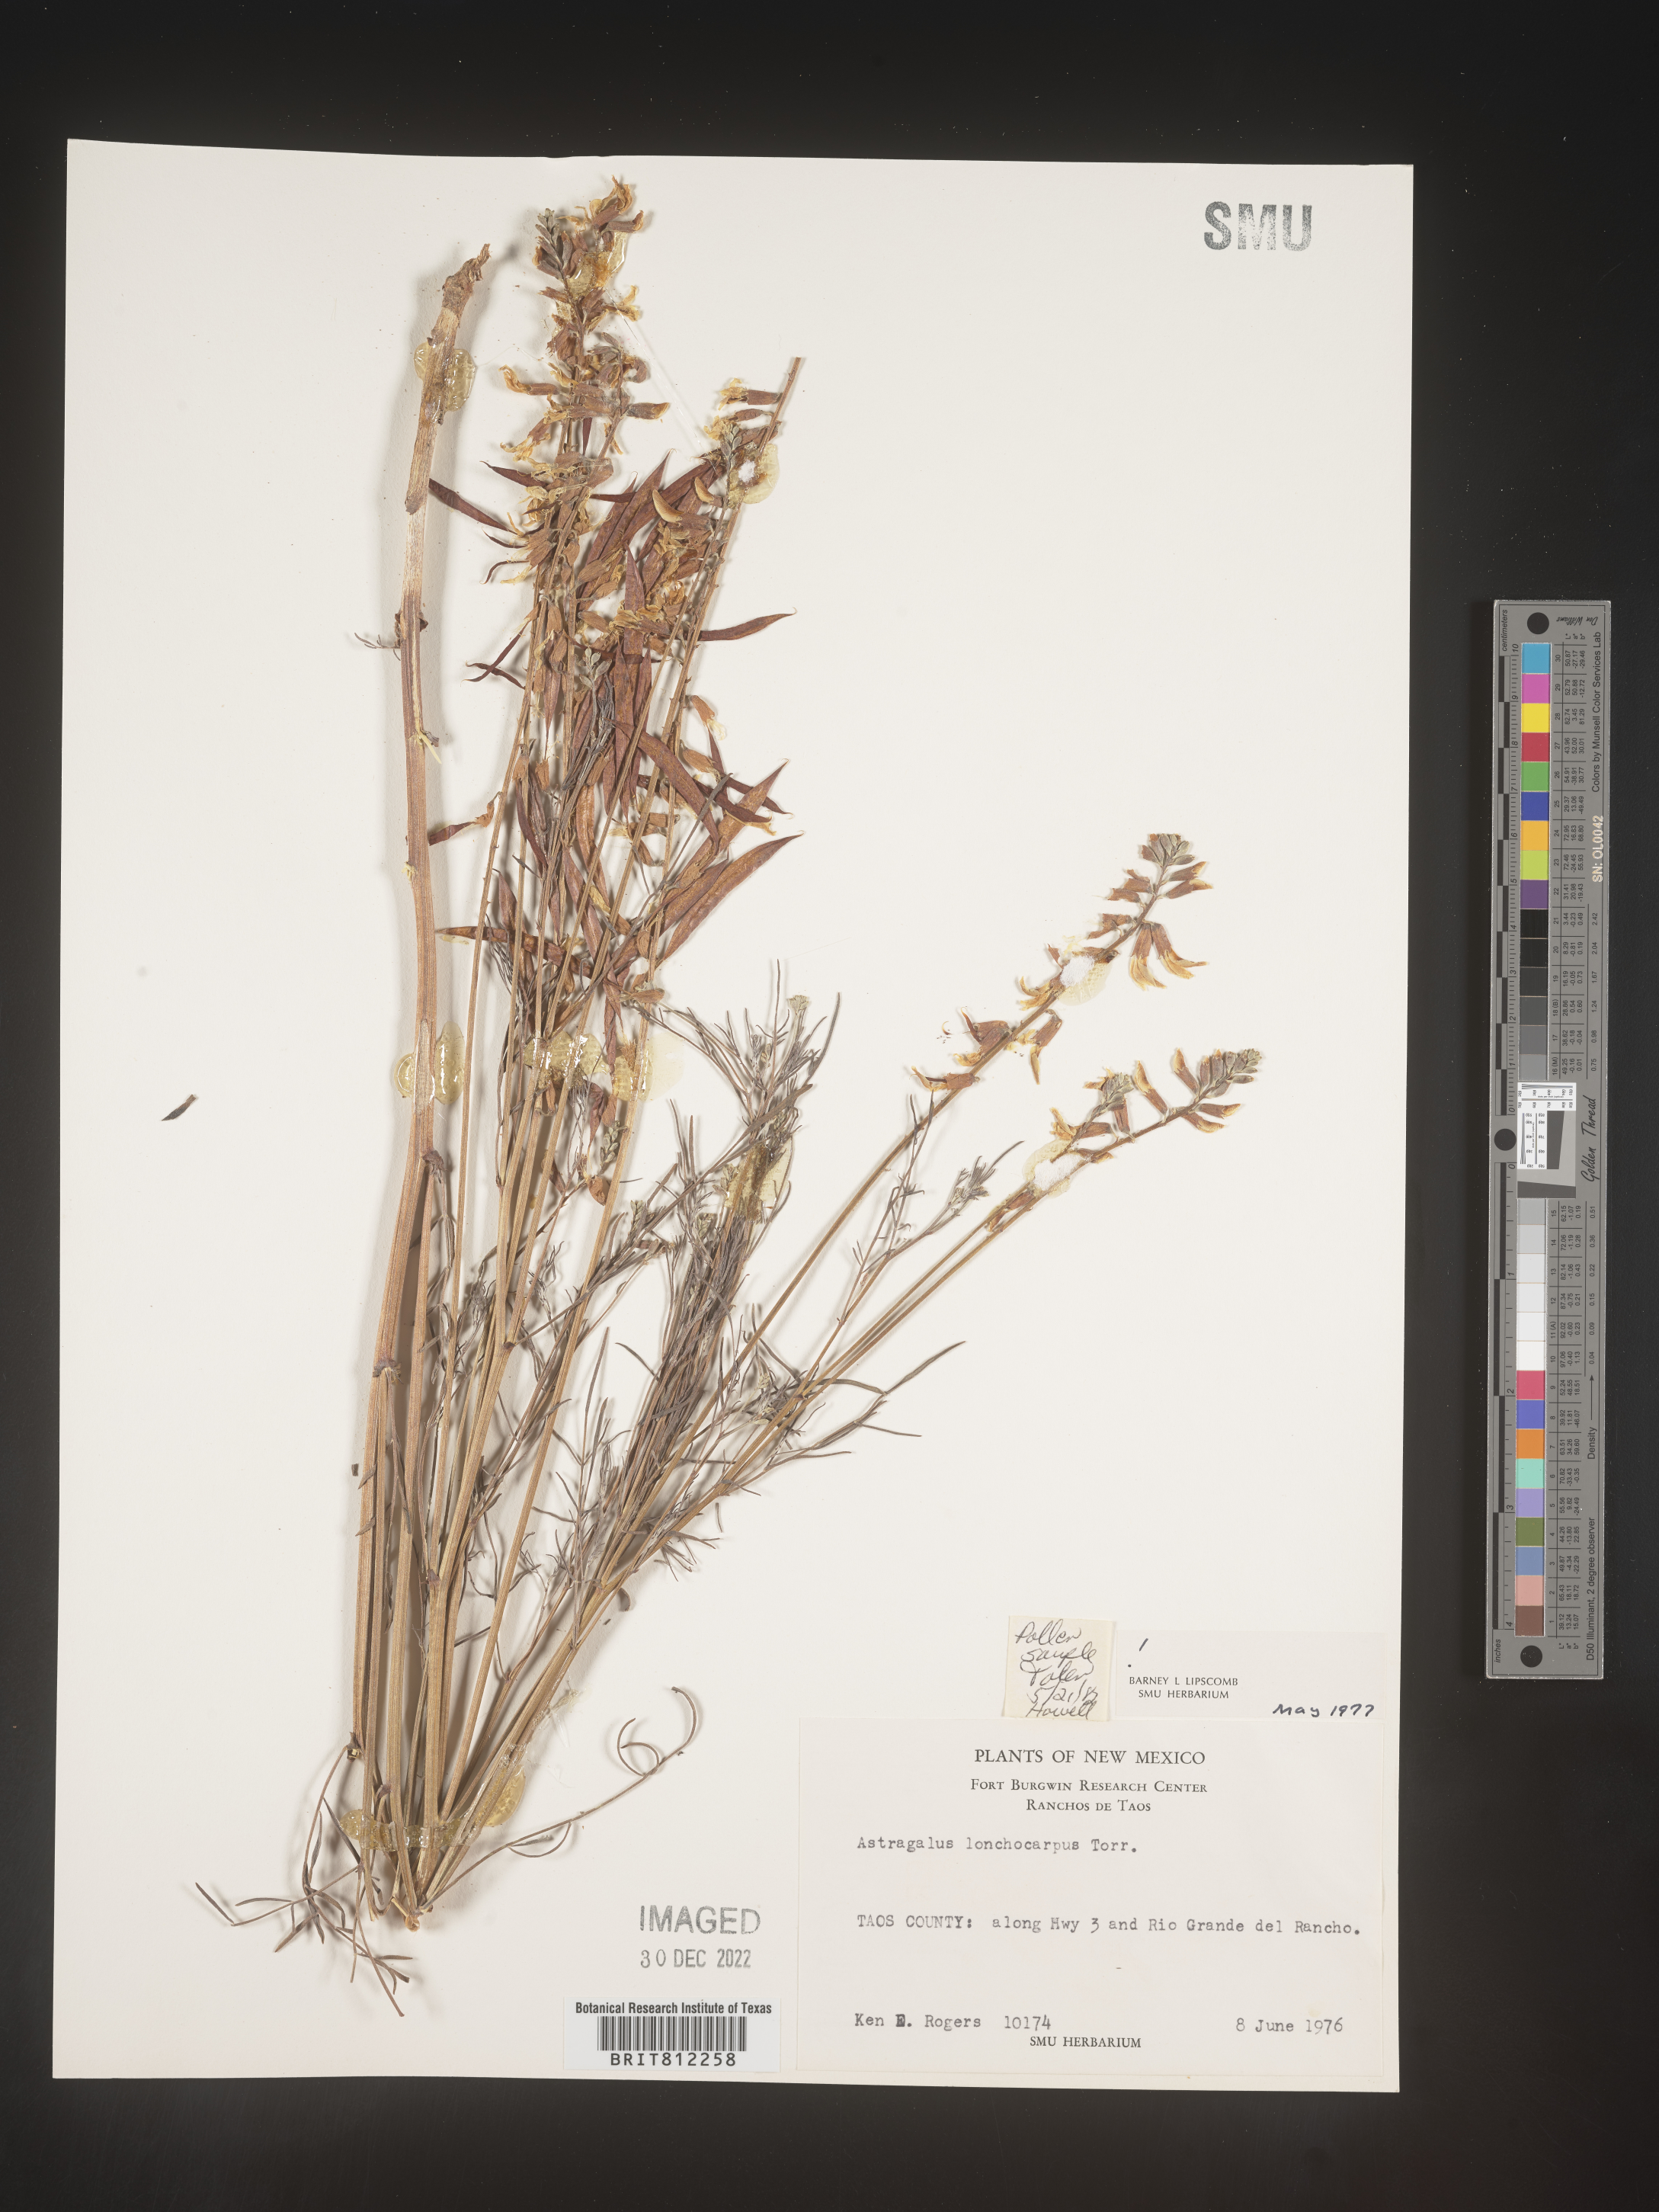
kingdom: Plantae
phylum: Tracheophyta
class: Magnoliopsida
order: Fabales
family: Fabaceae
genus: Astragalus
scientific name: Astragalus lonchocarpus
